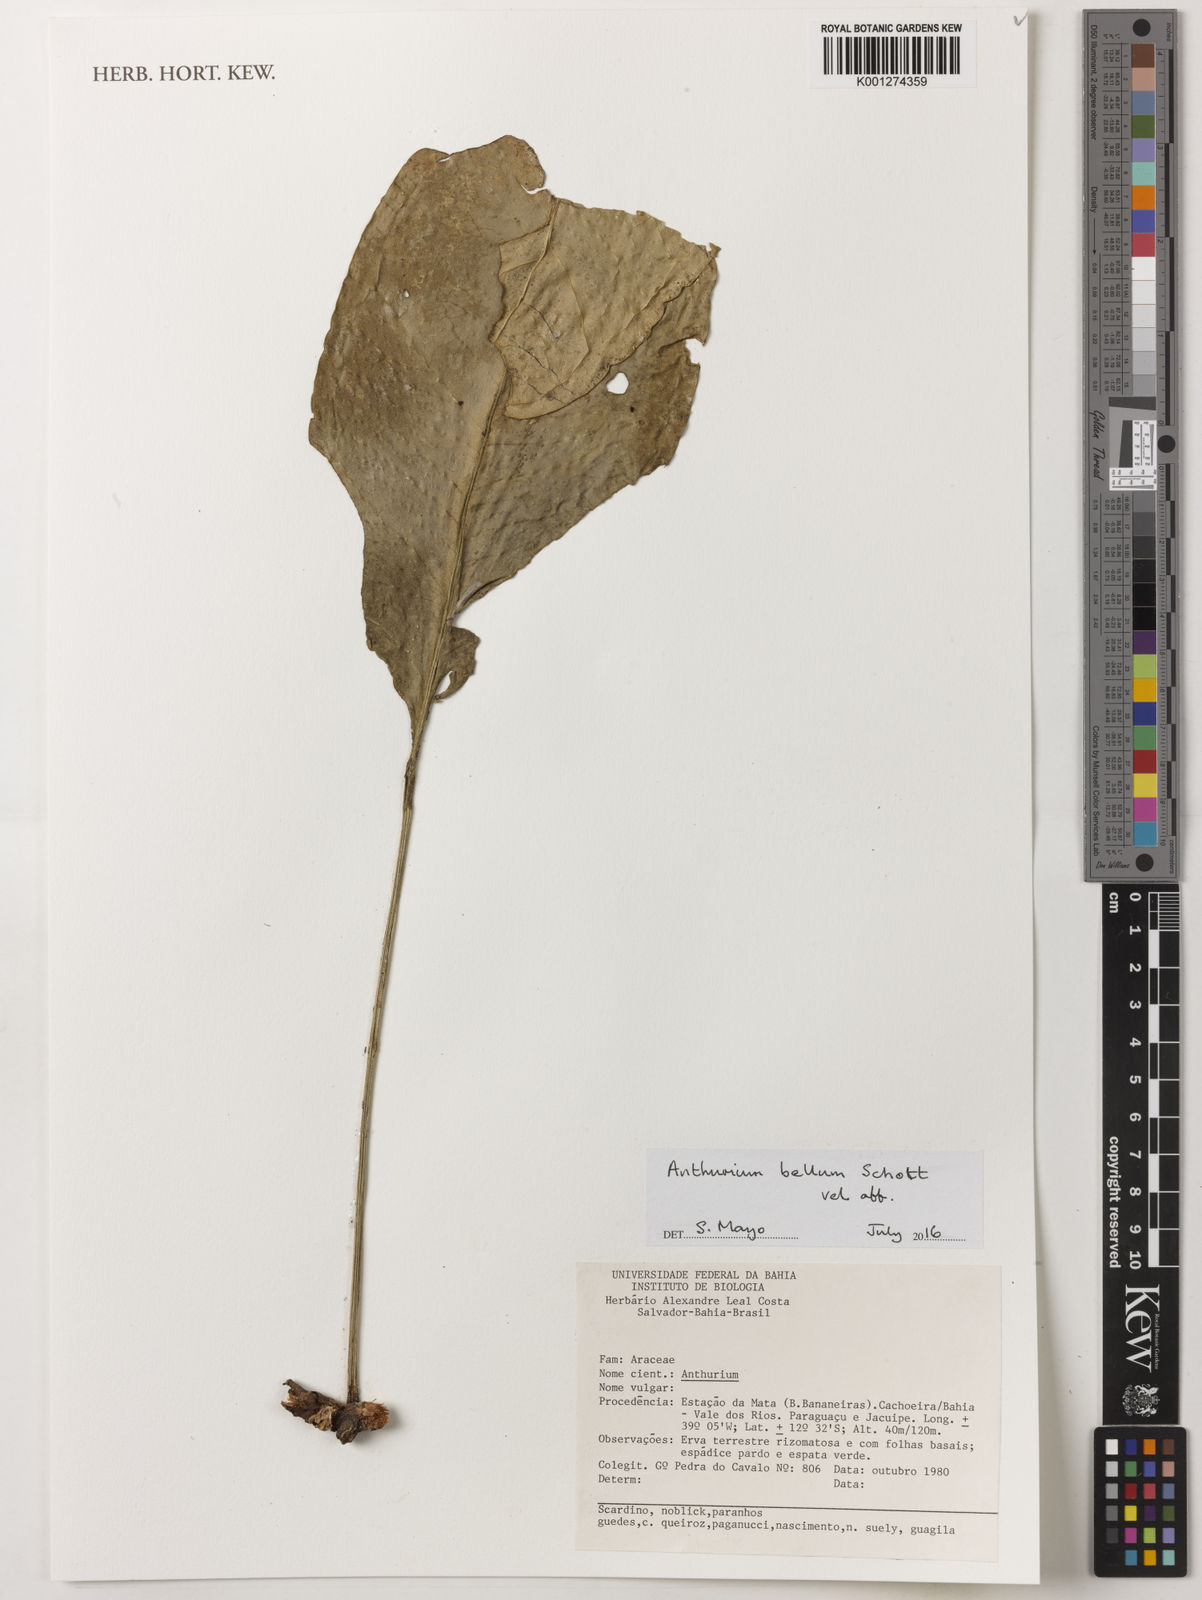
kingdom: Plantae
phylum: Tracheophyta
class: Liliopsida
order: Alismatales
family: Araceae
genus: Anthurium
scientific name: Anthurium bellum
